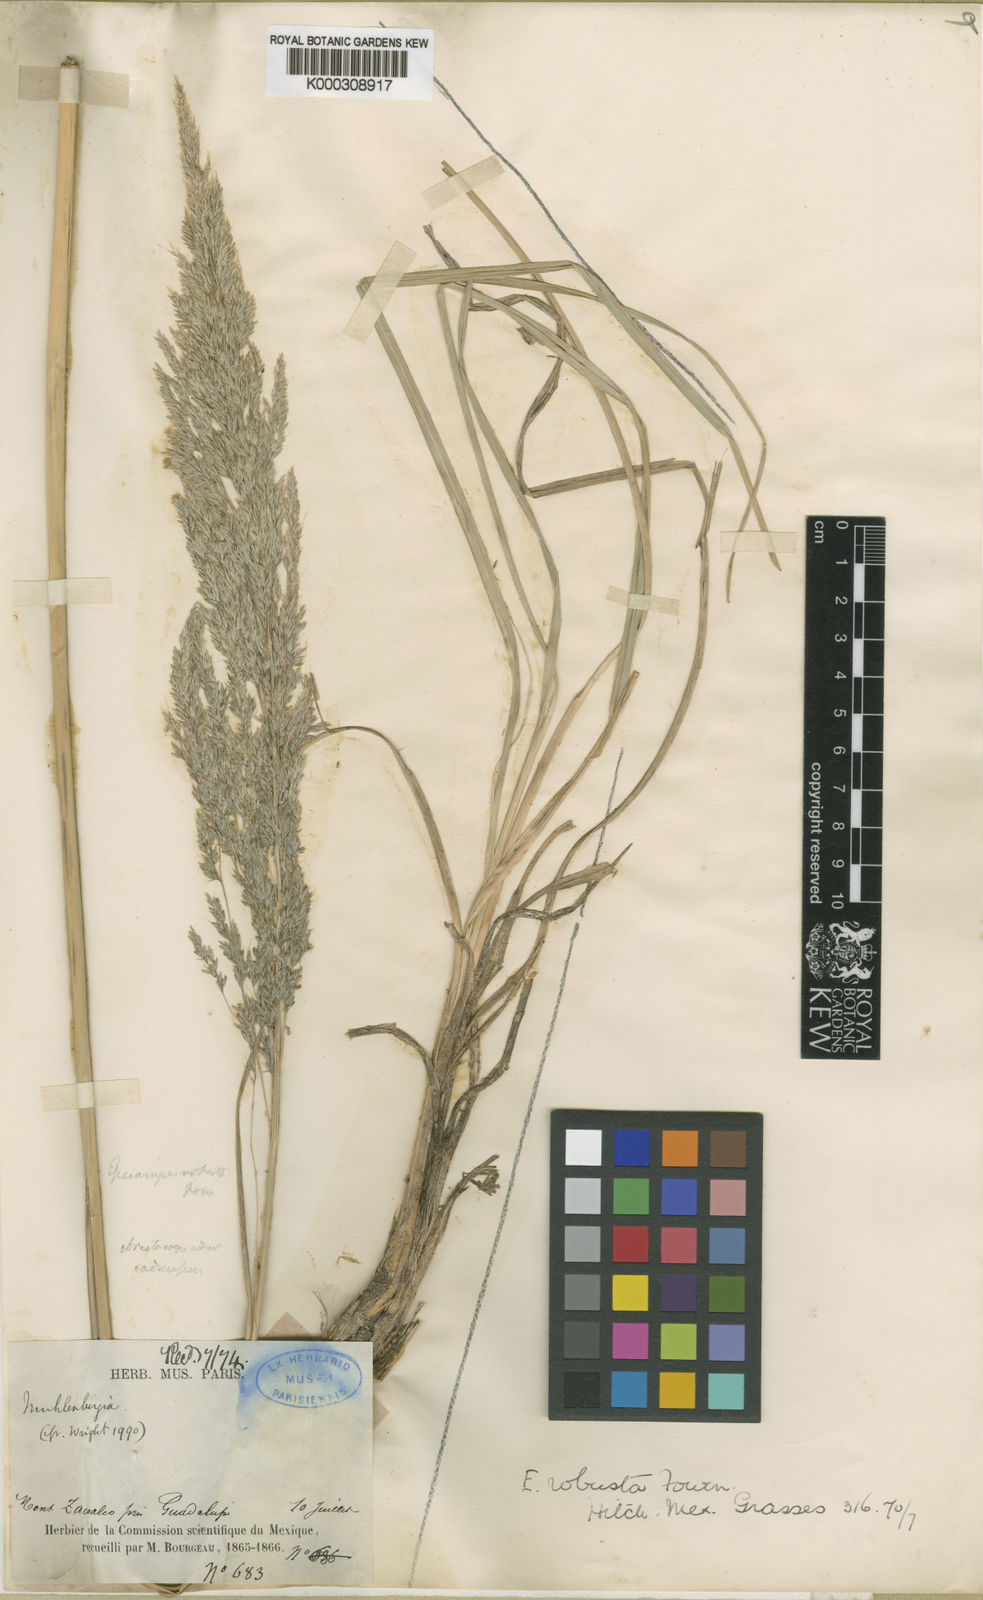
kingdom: Plantae
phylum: Tracheophyta
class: Liliopsida
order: Poales
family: Poaceae
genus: Muhlenbergia
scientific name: Muhlenbergia robusta
